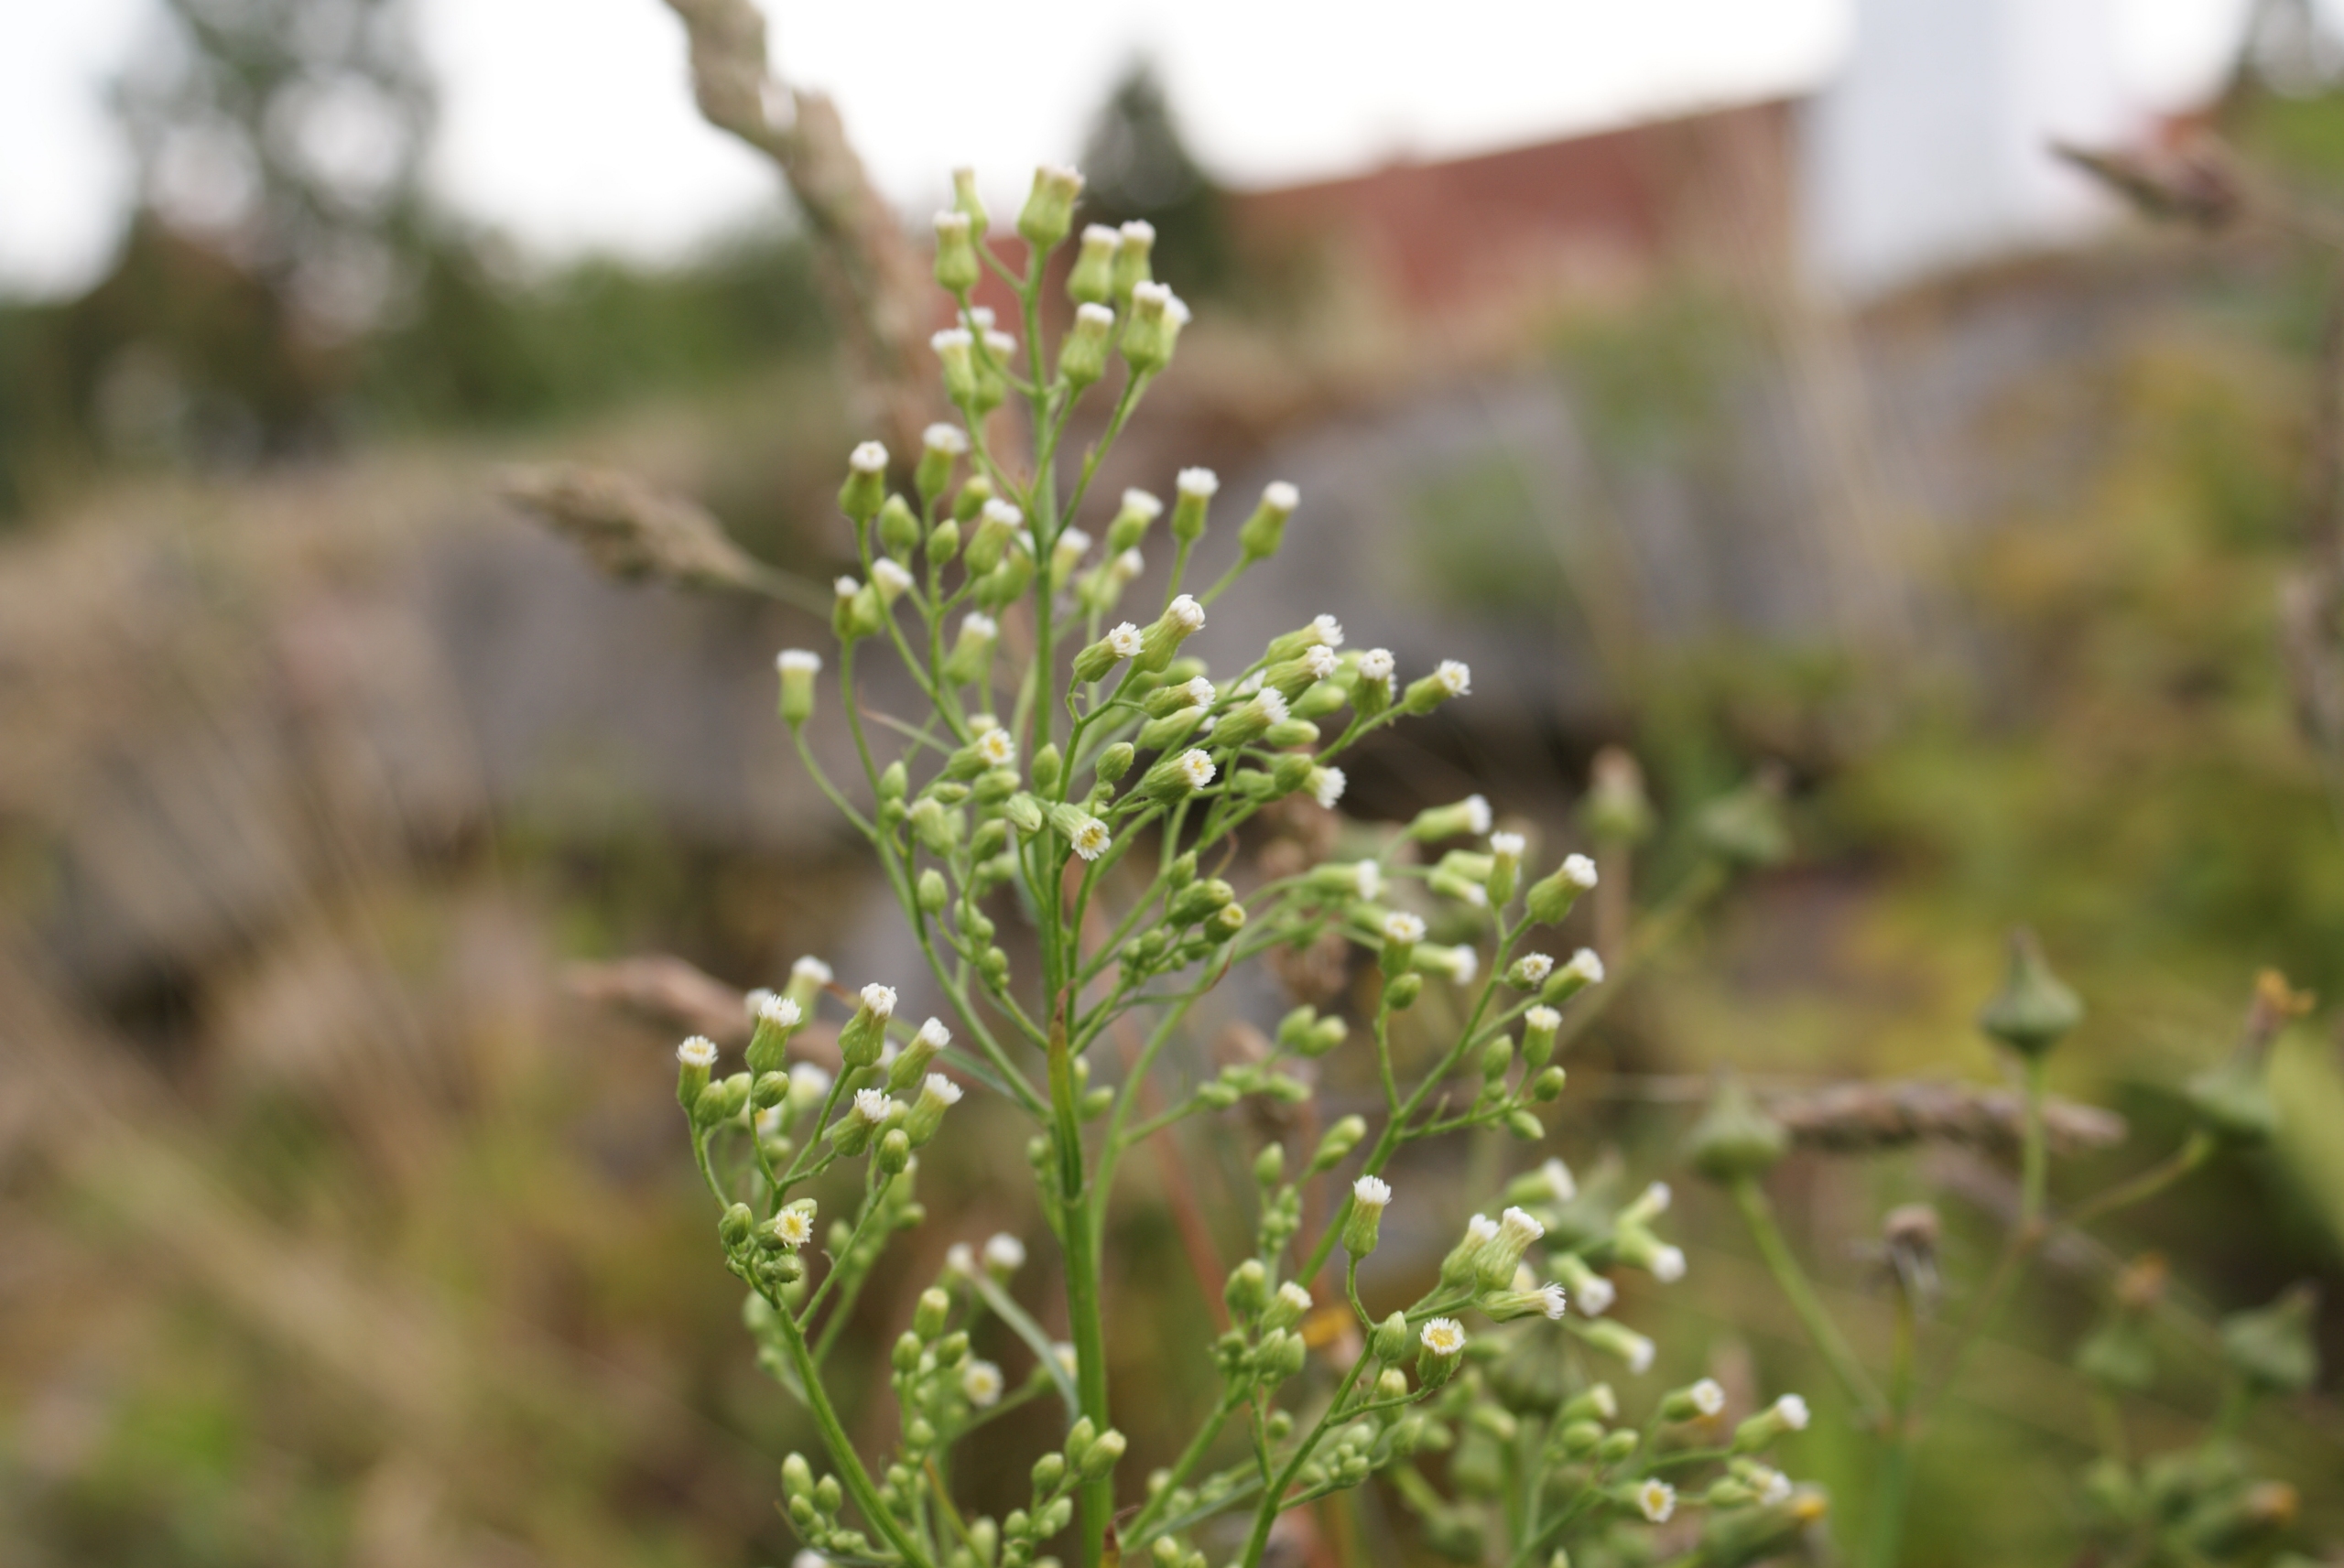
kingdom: Plantae
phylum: Tracheophyta
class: Magnoliopsida
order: Asterales
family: Asteraceae
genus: Erigeron
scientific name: Erigeron canadensis
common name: Kanadisk bakkestjerne
